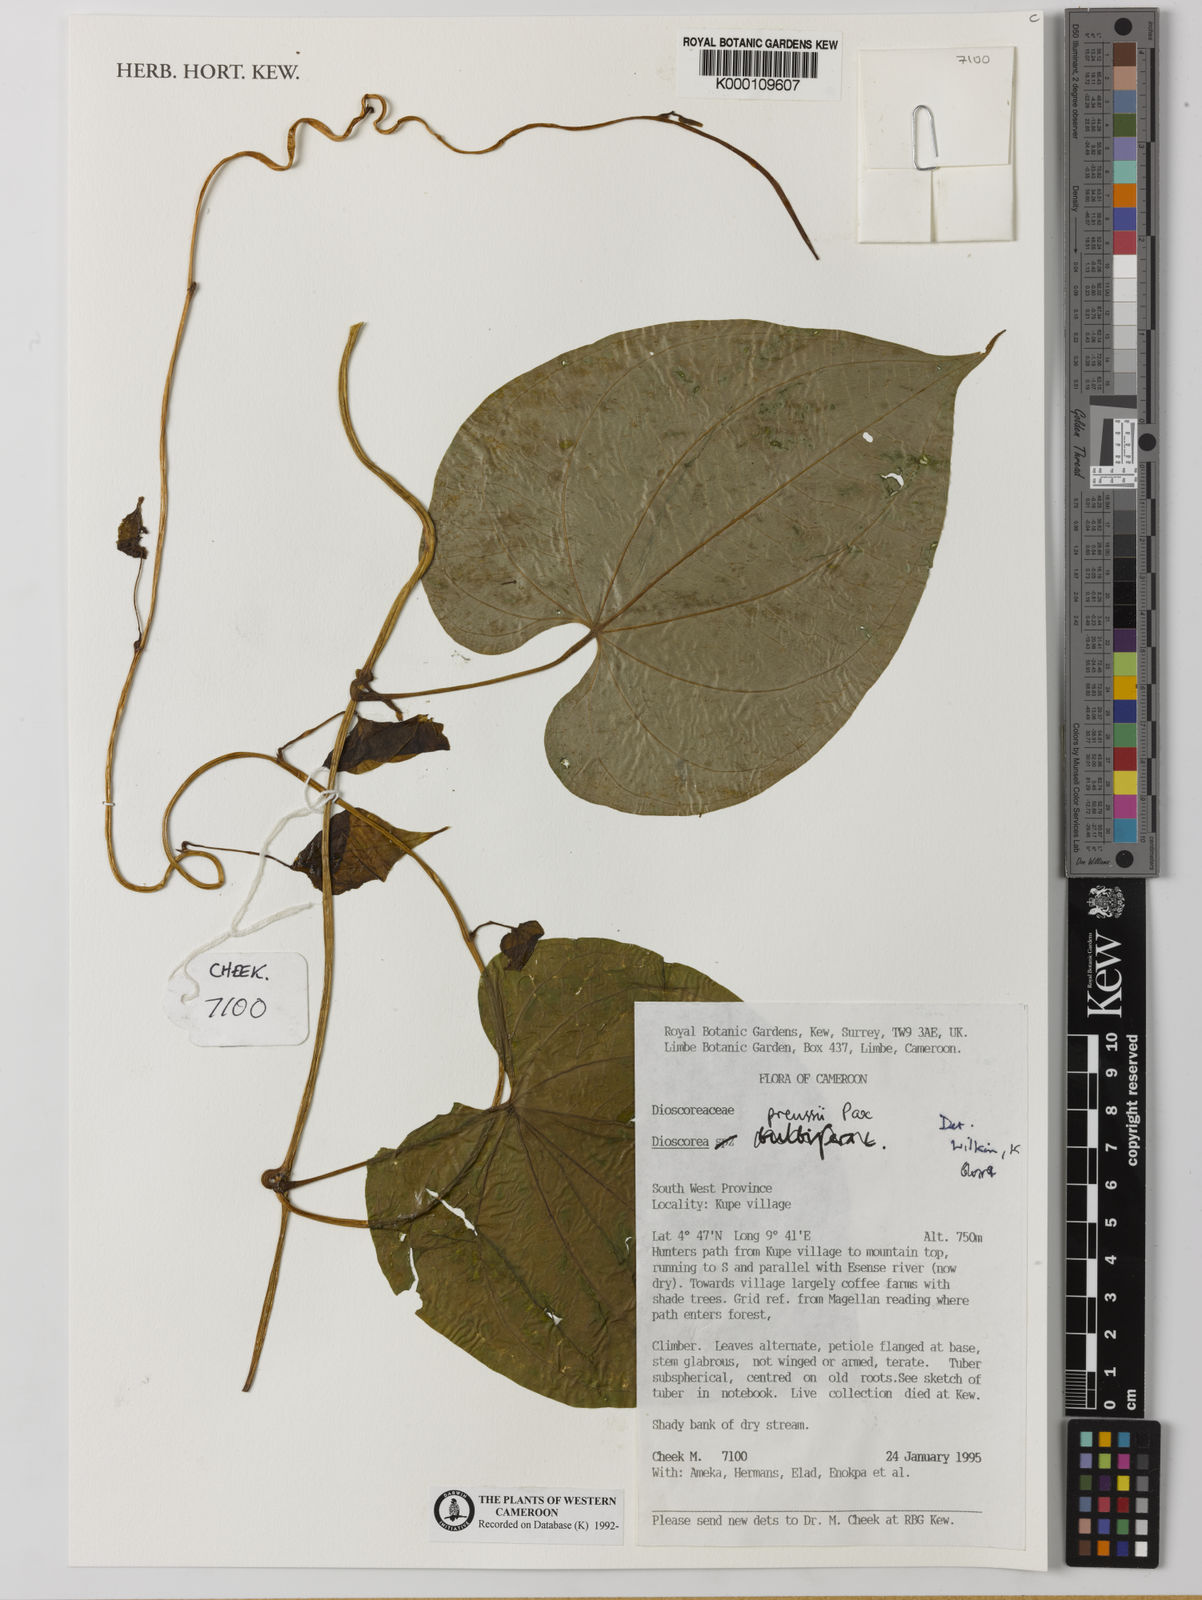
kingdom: Plantae
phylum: Tracheophyta
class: Liliopsida
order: Dioscoreales
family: Dioscoreaceae
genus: Dioscorea
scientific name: Dioscorea preussii
